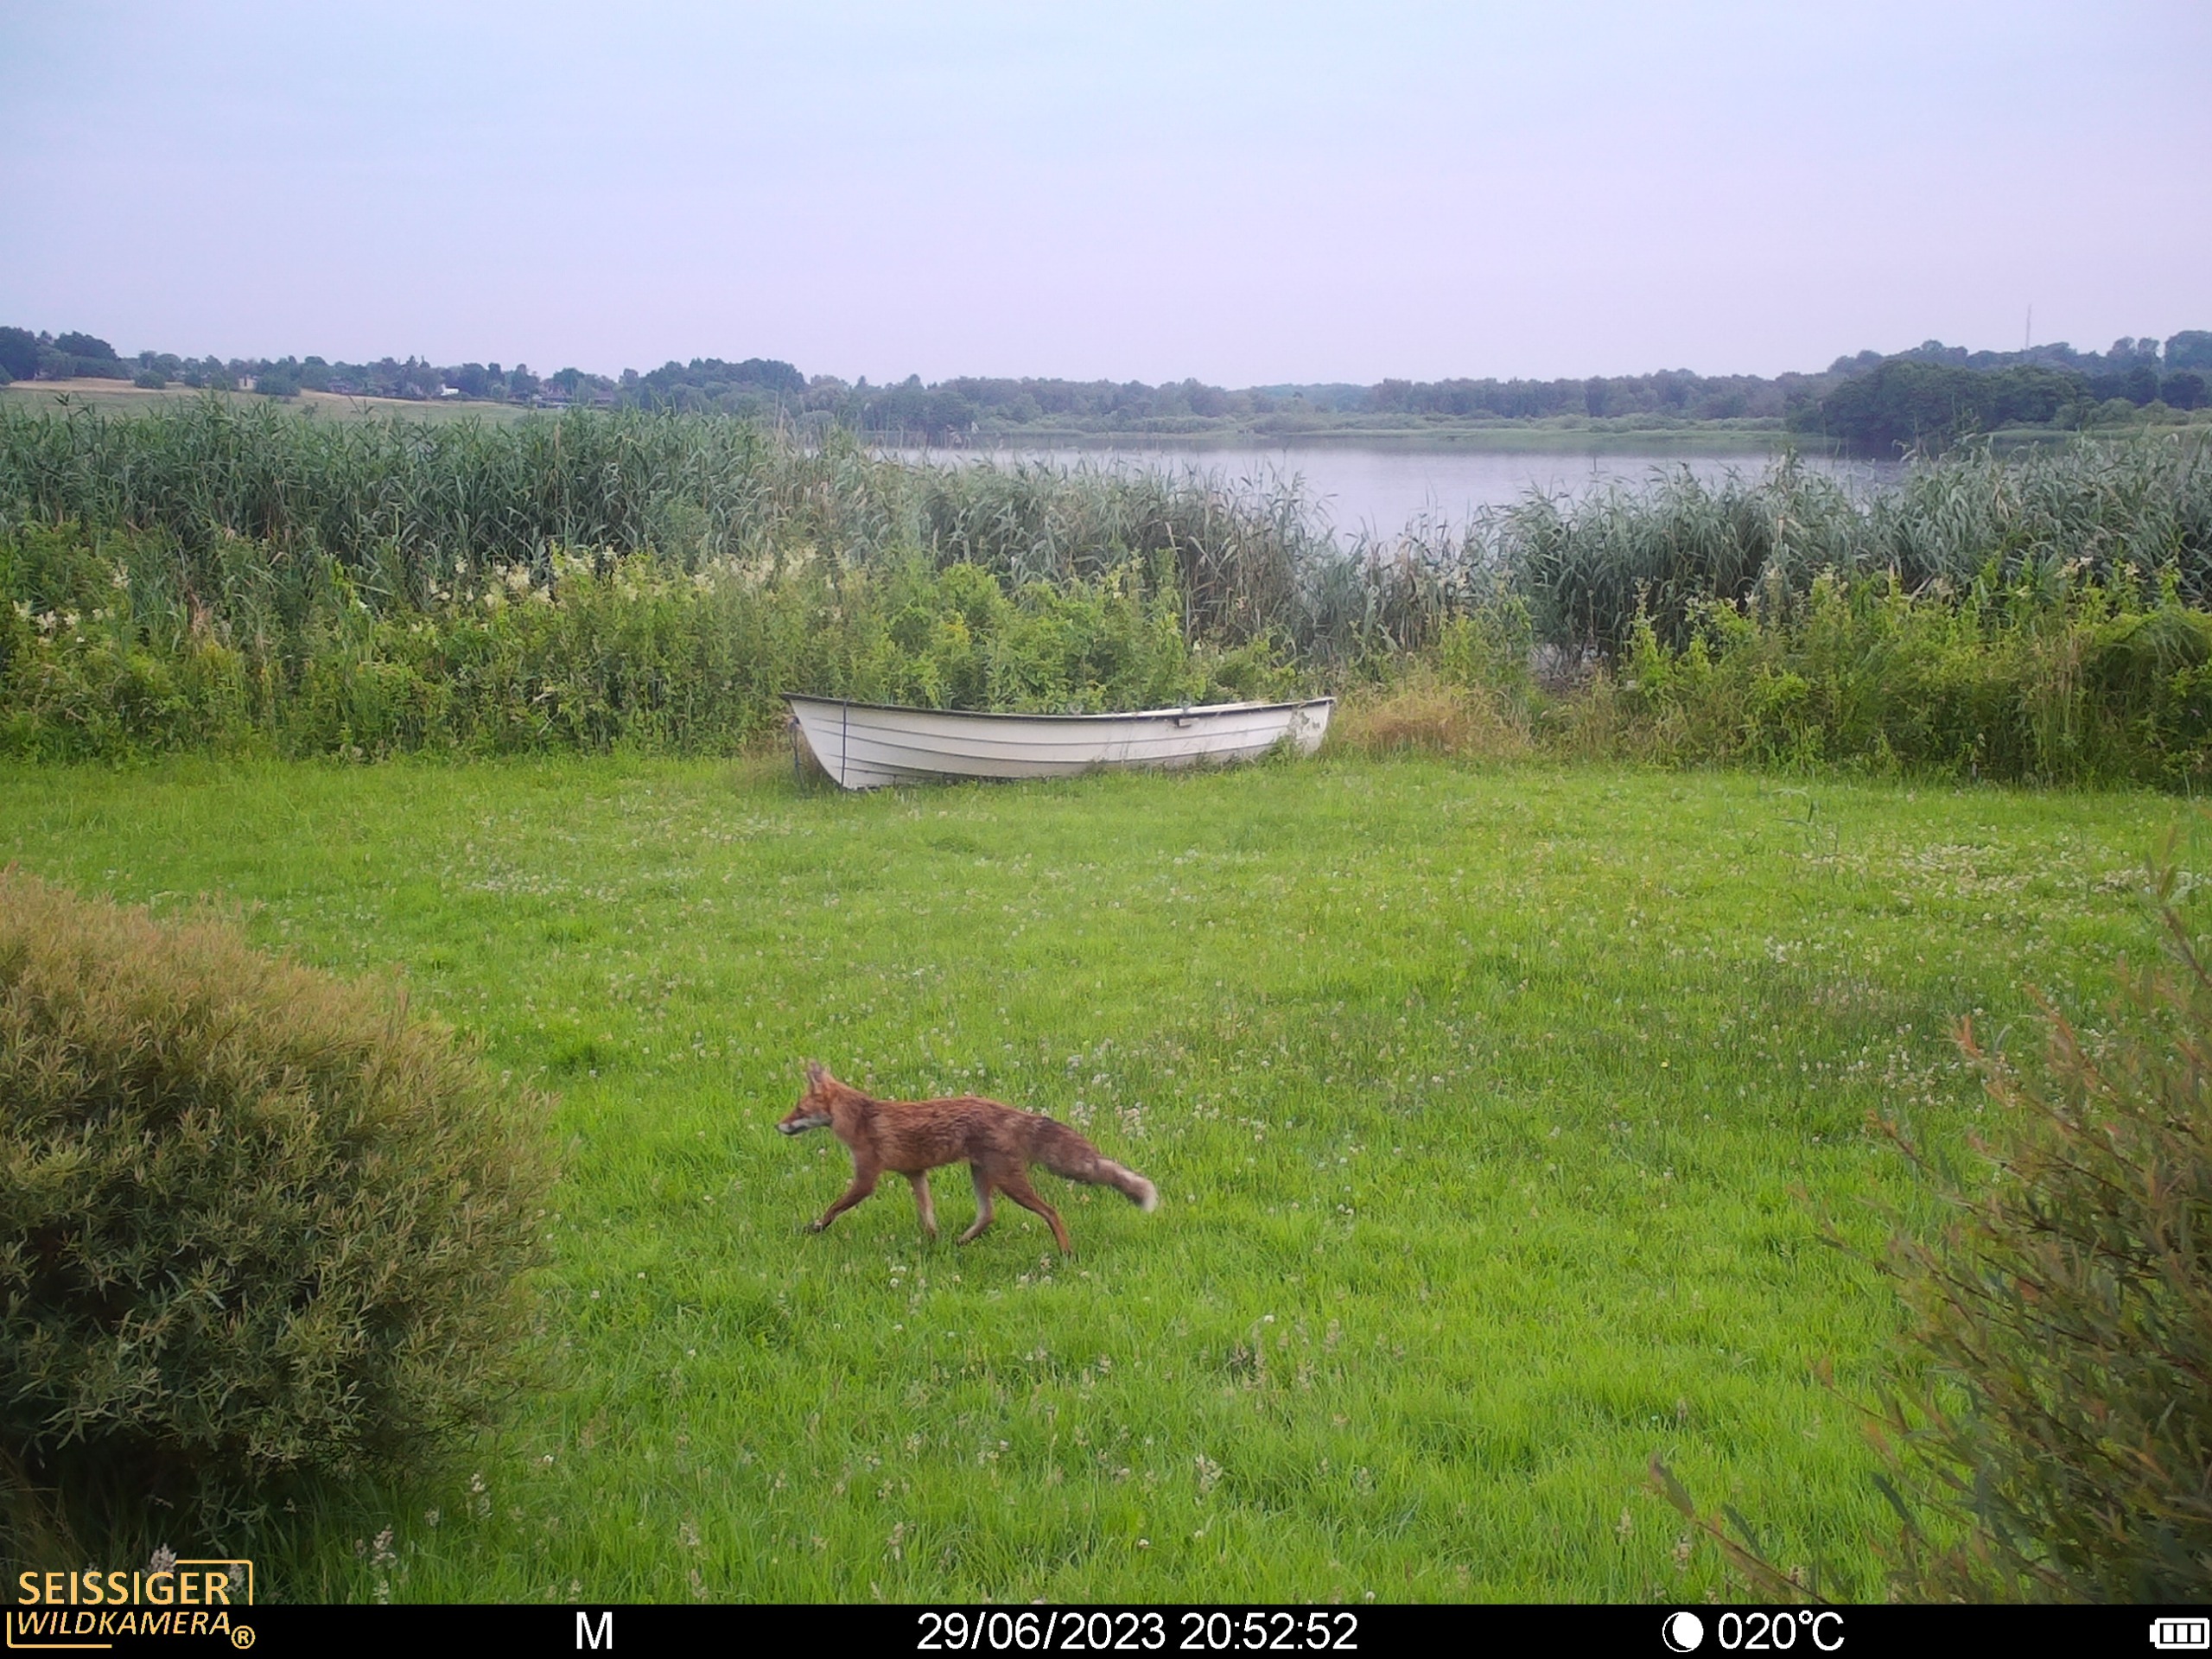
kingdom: Animalia
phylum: Chordata
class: Mammalia
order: Carnivora
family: Canidae
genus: Vulpes
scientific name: Vulpes vulpes
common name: Ræv
